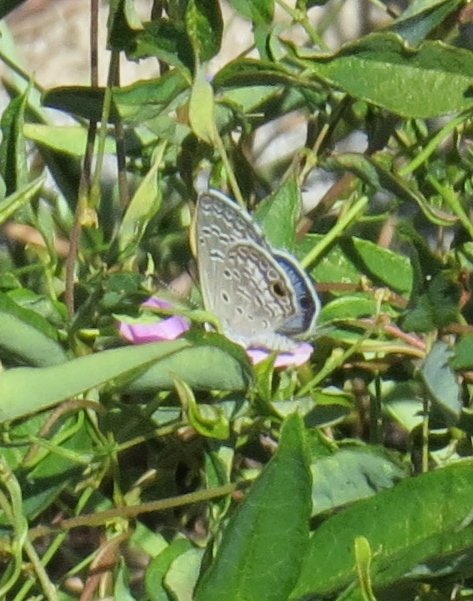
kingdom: Animalia
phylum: Arthropoda
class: Insecta
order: Lepidoptera
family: Lycaenidae
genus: Hemiargus
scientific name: Hemiargus ceraunus
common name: Ceraunus Blue
